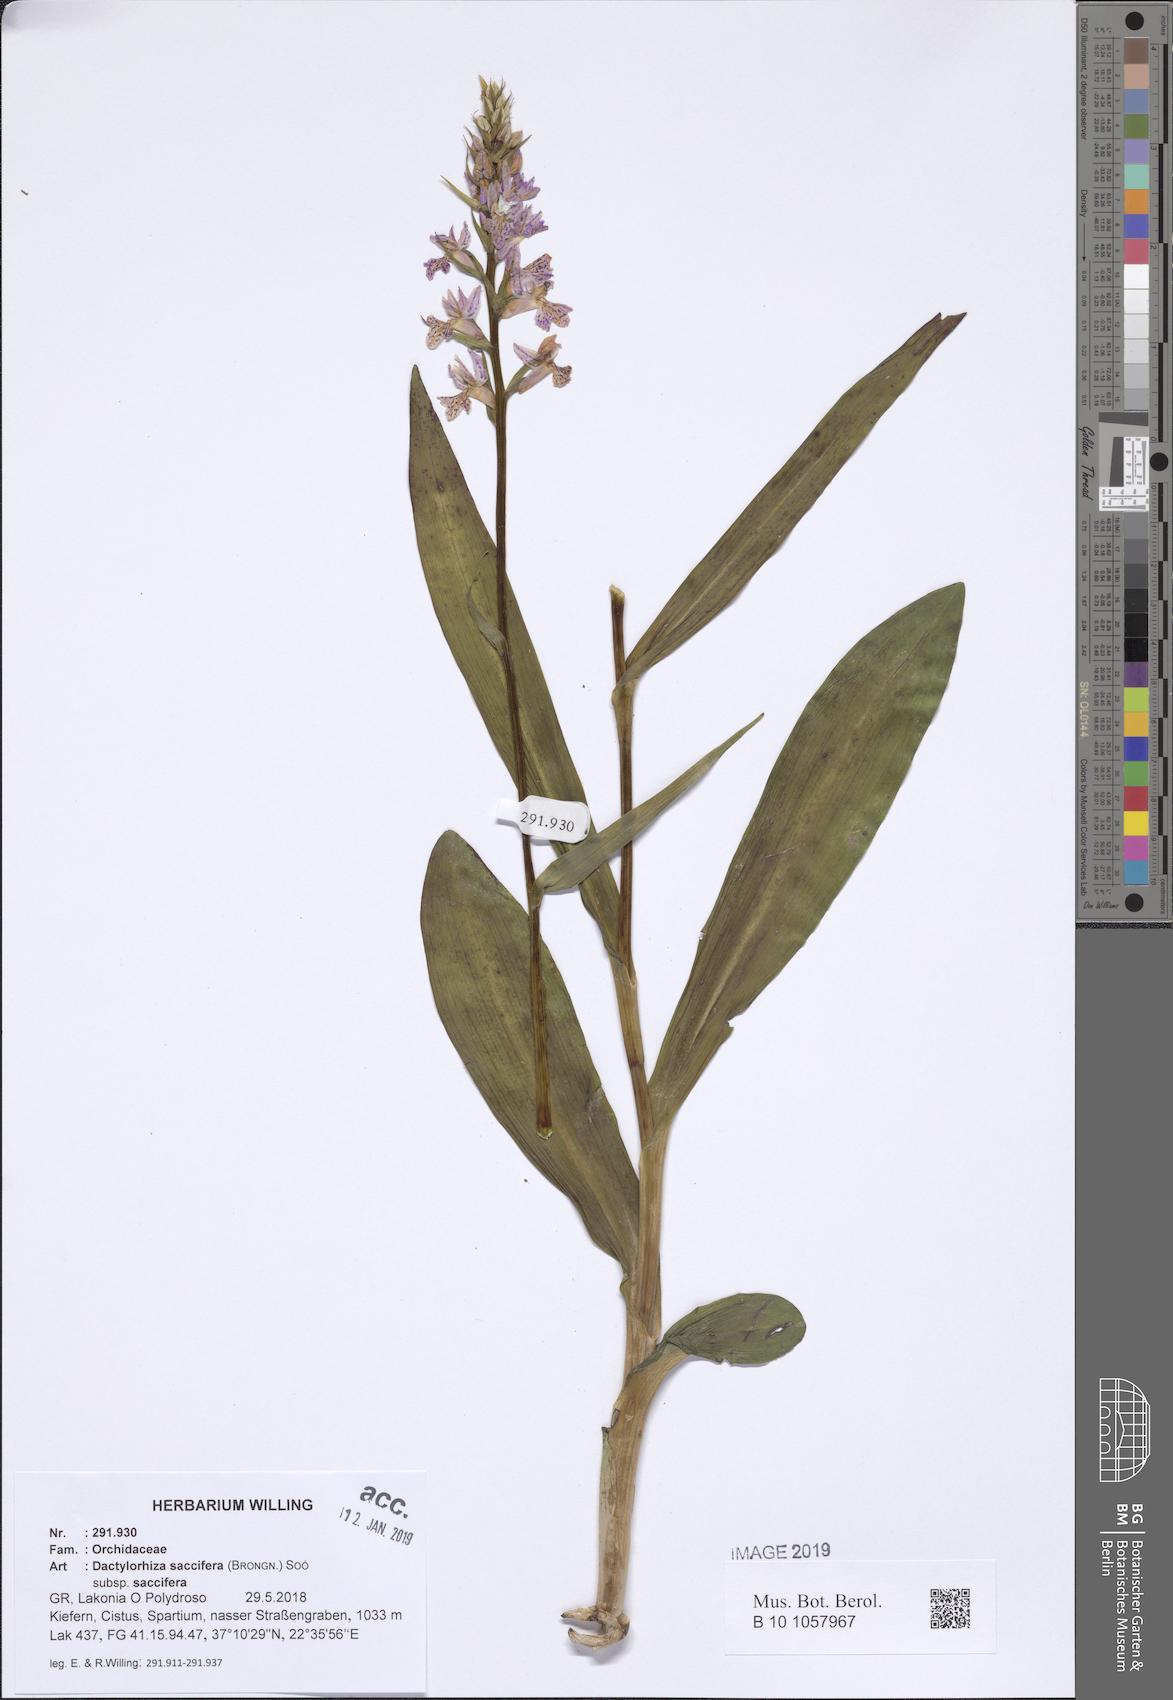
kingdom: Plantae
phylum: Tracheophyta
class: Liliopsida
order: Asparagales
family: Orchidaceae
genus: Dactylorhiza
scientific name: Dactylorhiza maculata
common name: Heath spotted-orchid
